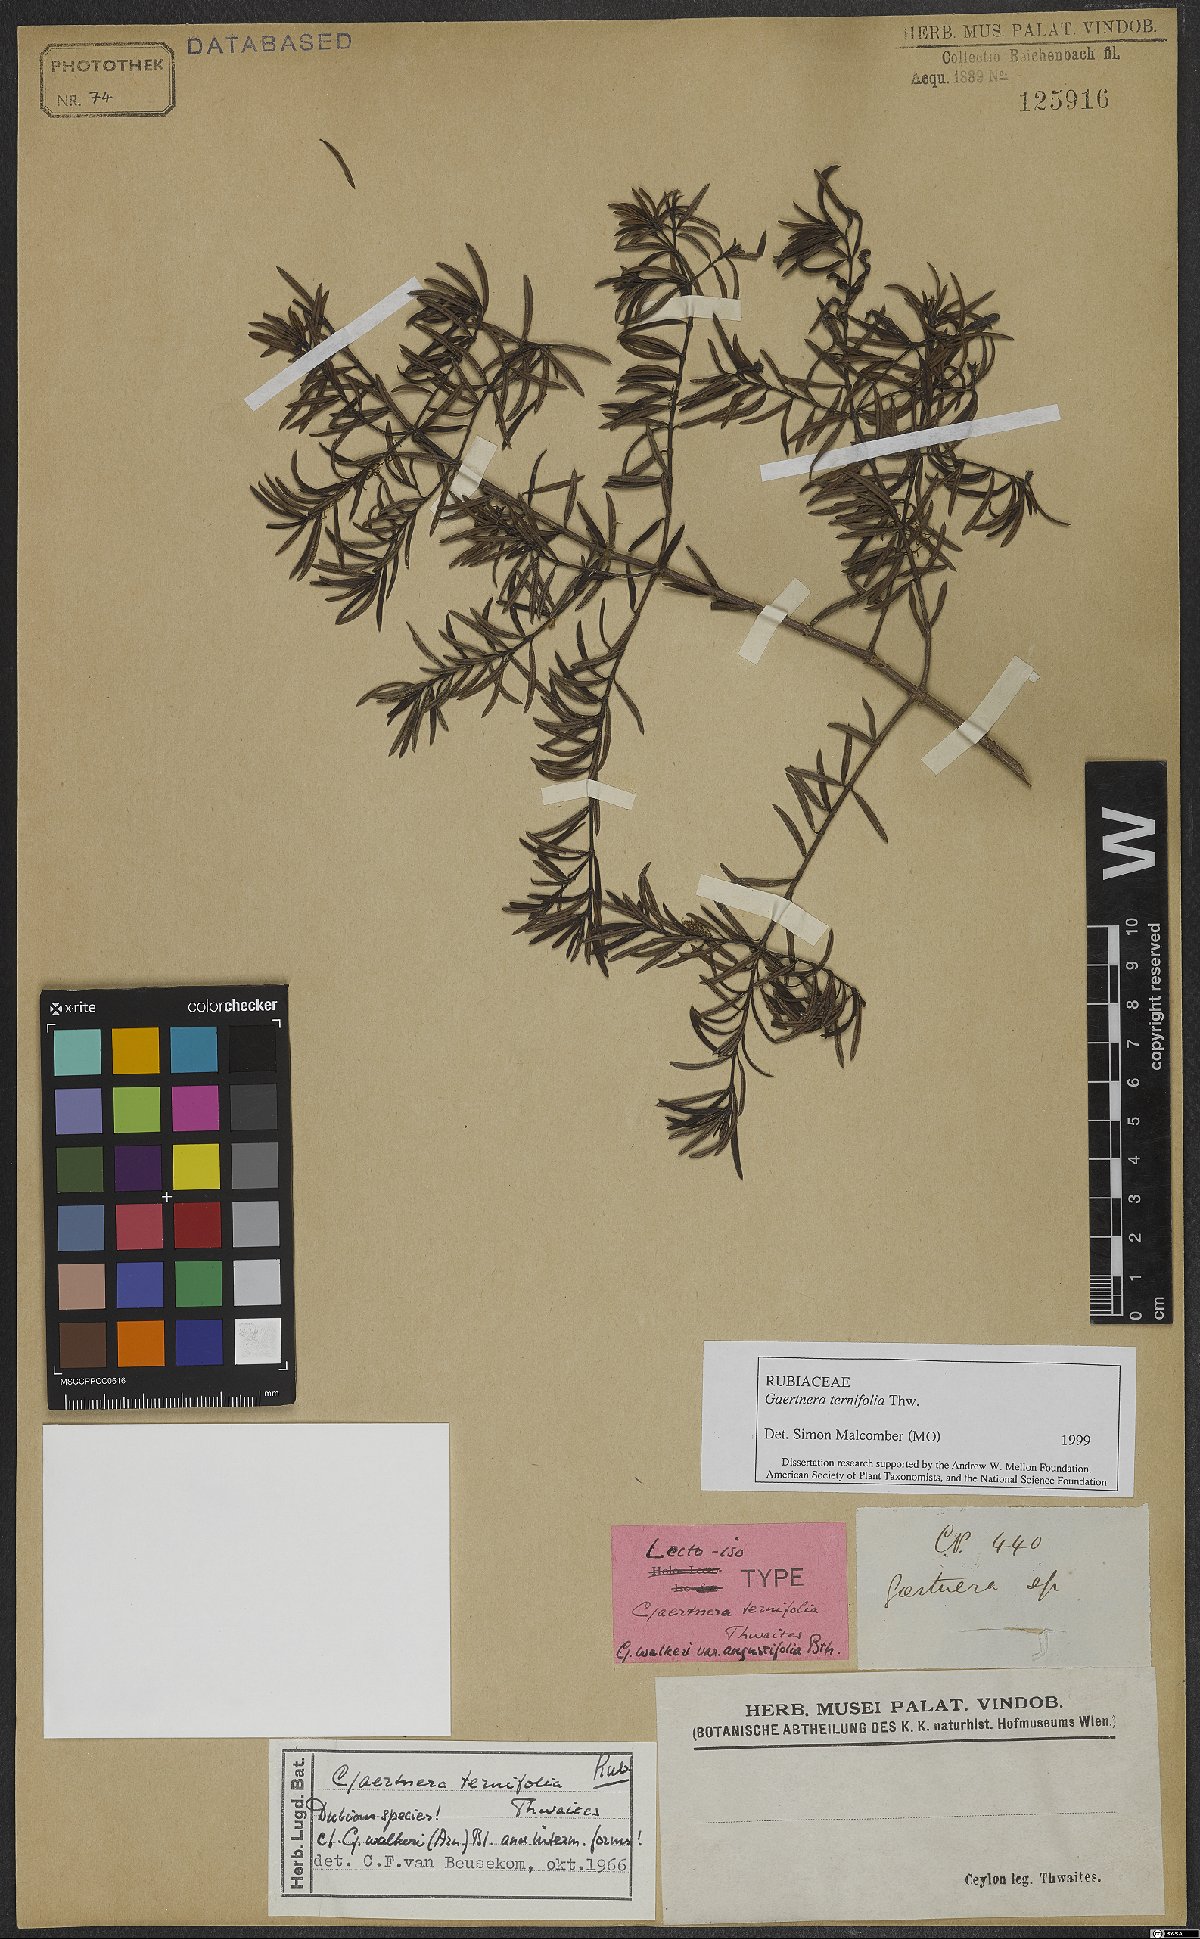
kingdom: Plantae
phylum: Tracheophyta
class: Magnoliopsida
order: Gentianales
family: Rubiaceae
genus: Gaertnera
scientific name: Gaertnera ternifolia
